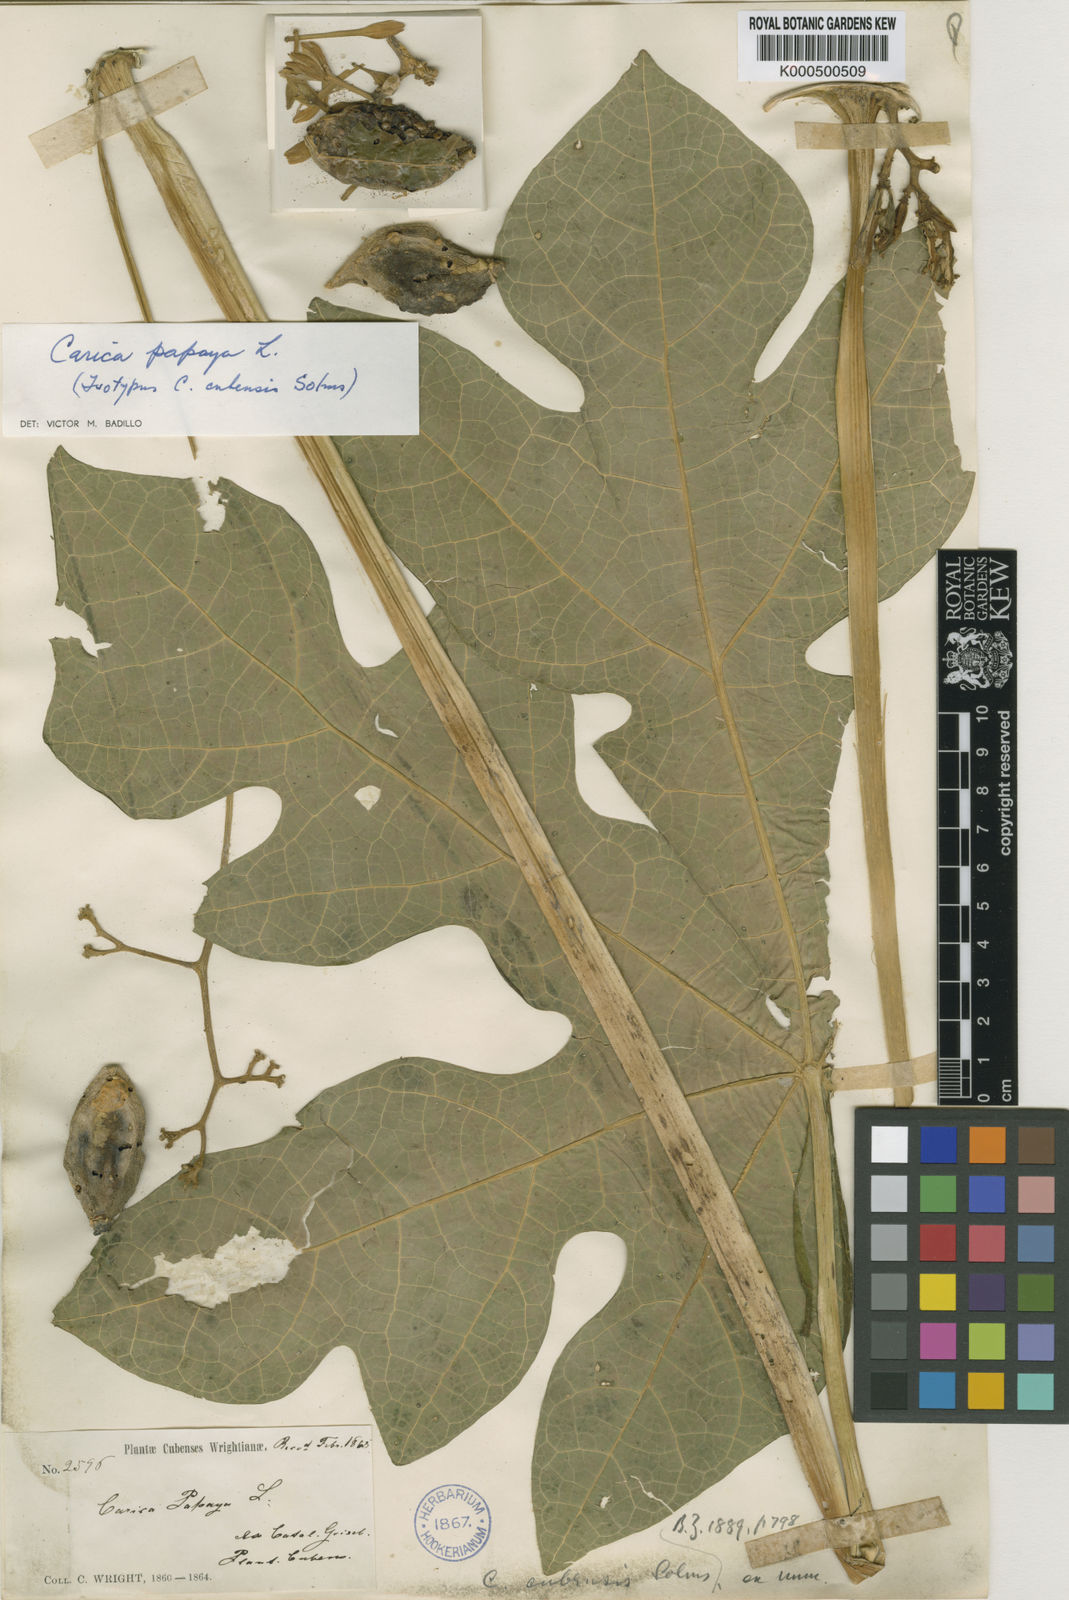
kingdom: Plantae
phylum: Tracheophyta
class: Magnoliopsida
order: Brassicales
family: Caricaceae
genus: Carica
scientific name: Carica papaya
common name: Papaya
